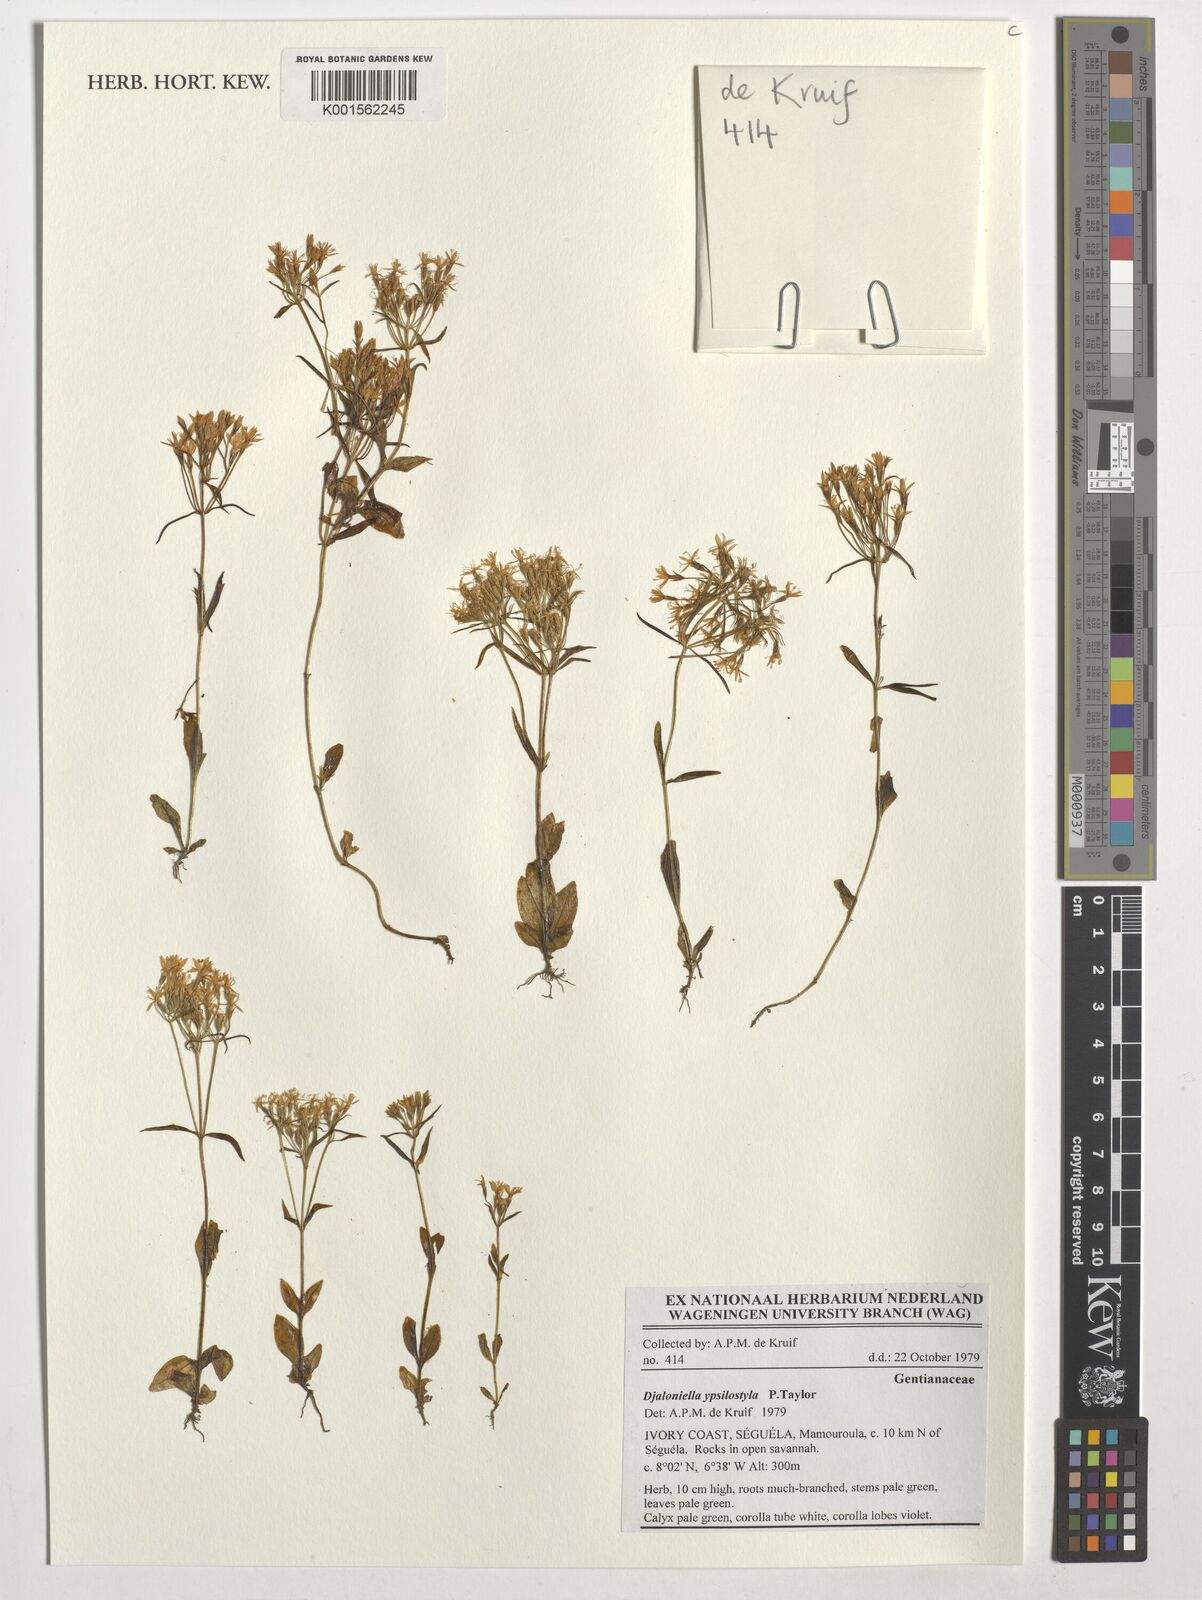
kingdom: Plantae
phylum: Tracheophyta
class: Magnoliopsida
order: Gentianales
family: Gentianaceae
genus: Djaloniella
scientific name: Djaloniella ypsilostyla
